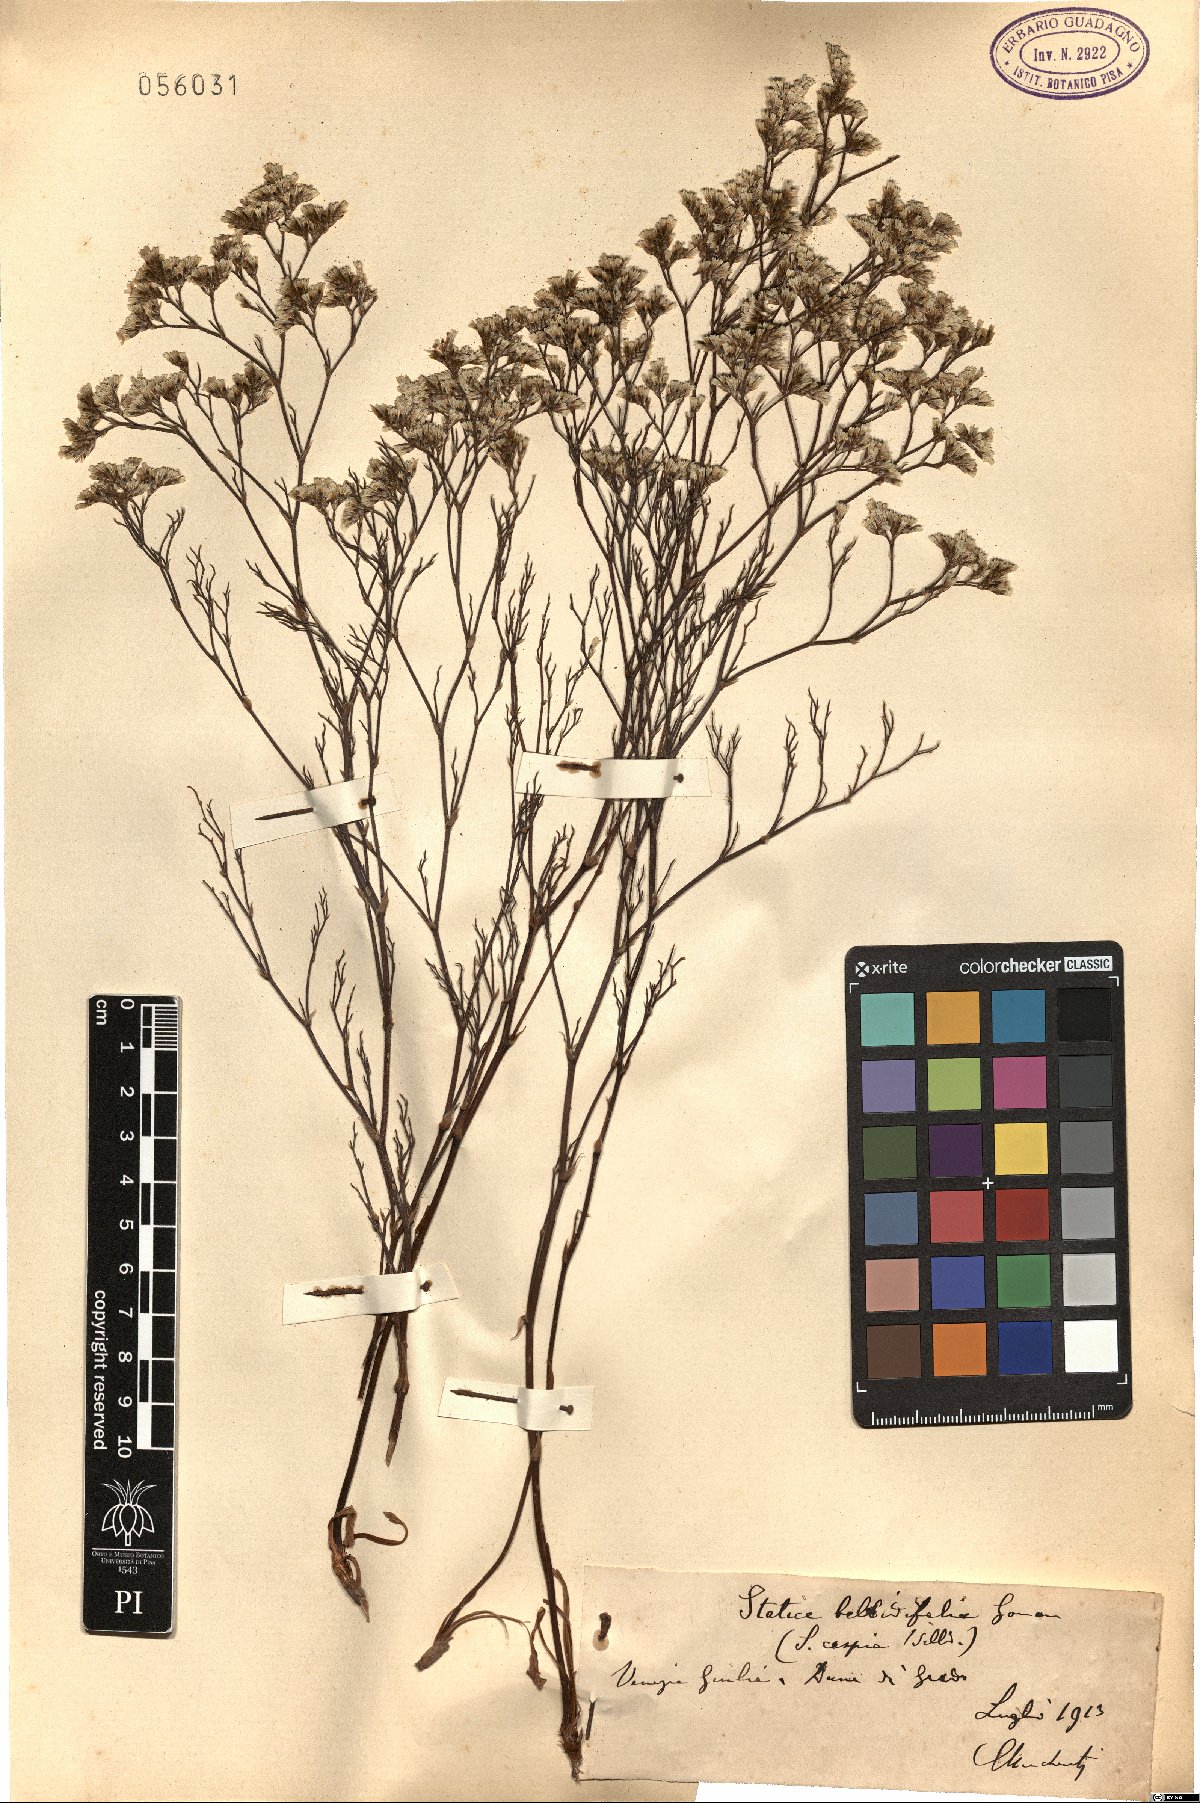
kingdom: Plantae
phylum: Tracheophyta
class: Magnoliopsida
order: Caryophyllales
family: Plumbaginaceae
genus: Limonium
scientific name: Limonium bellidifolium
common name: Matted sea-lavender
